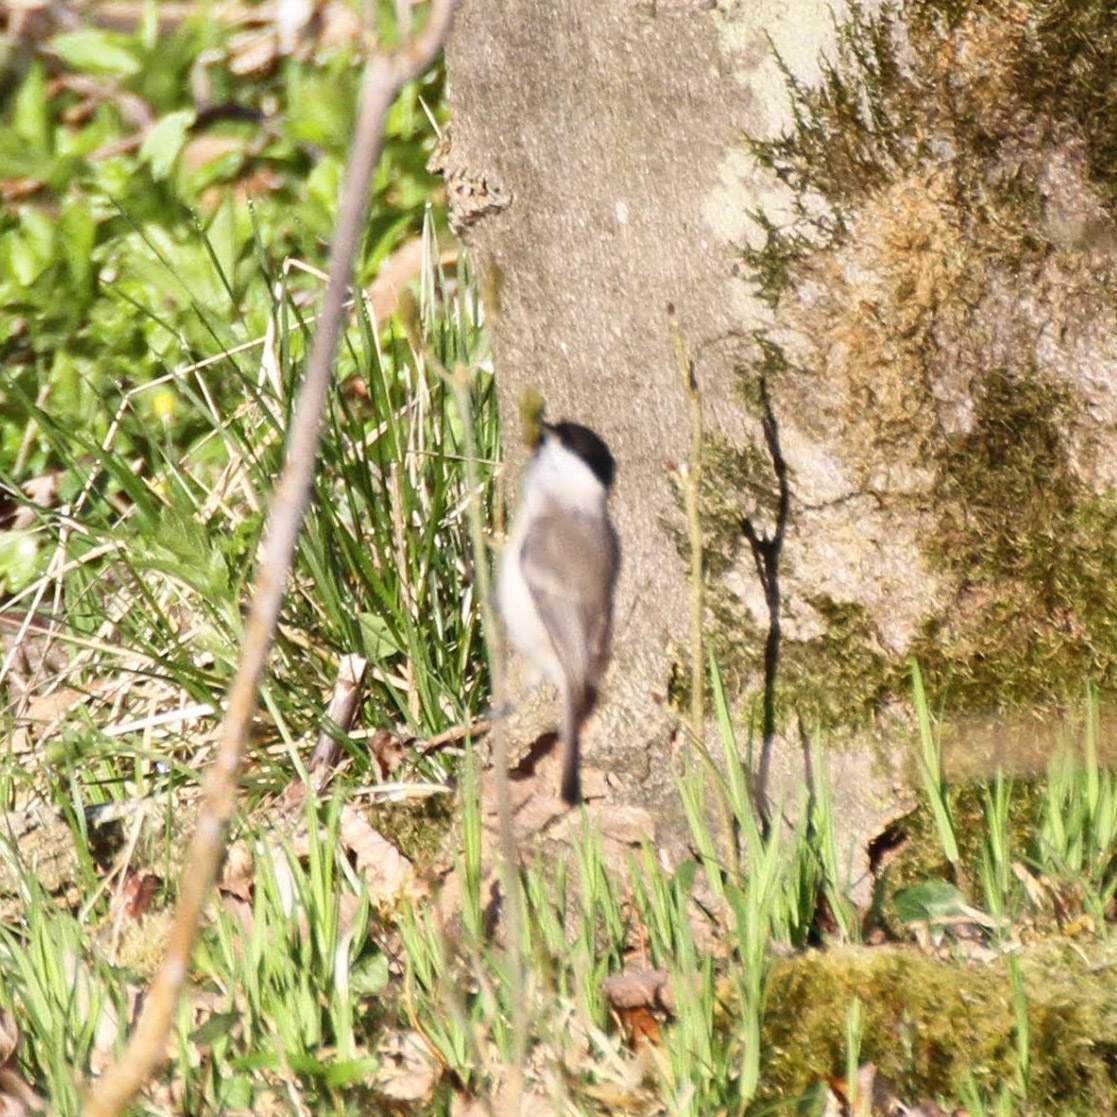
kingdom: Animalia
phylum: Chordata
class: Aves
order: Passeriformes
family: Paridae
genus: Poecile
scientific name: Poecile palustris
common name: Sumpmejse
